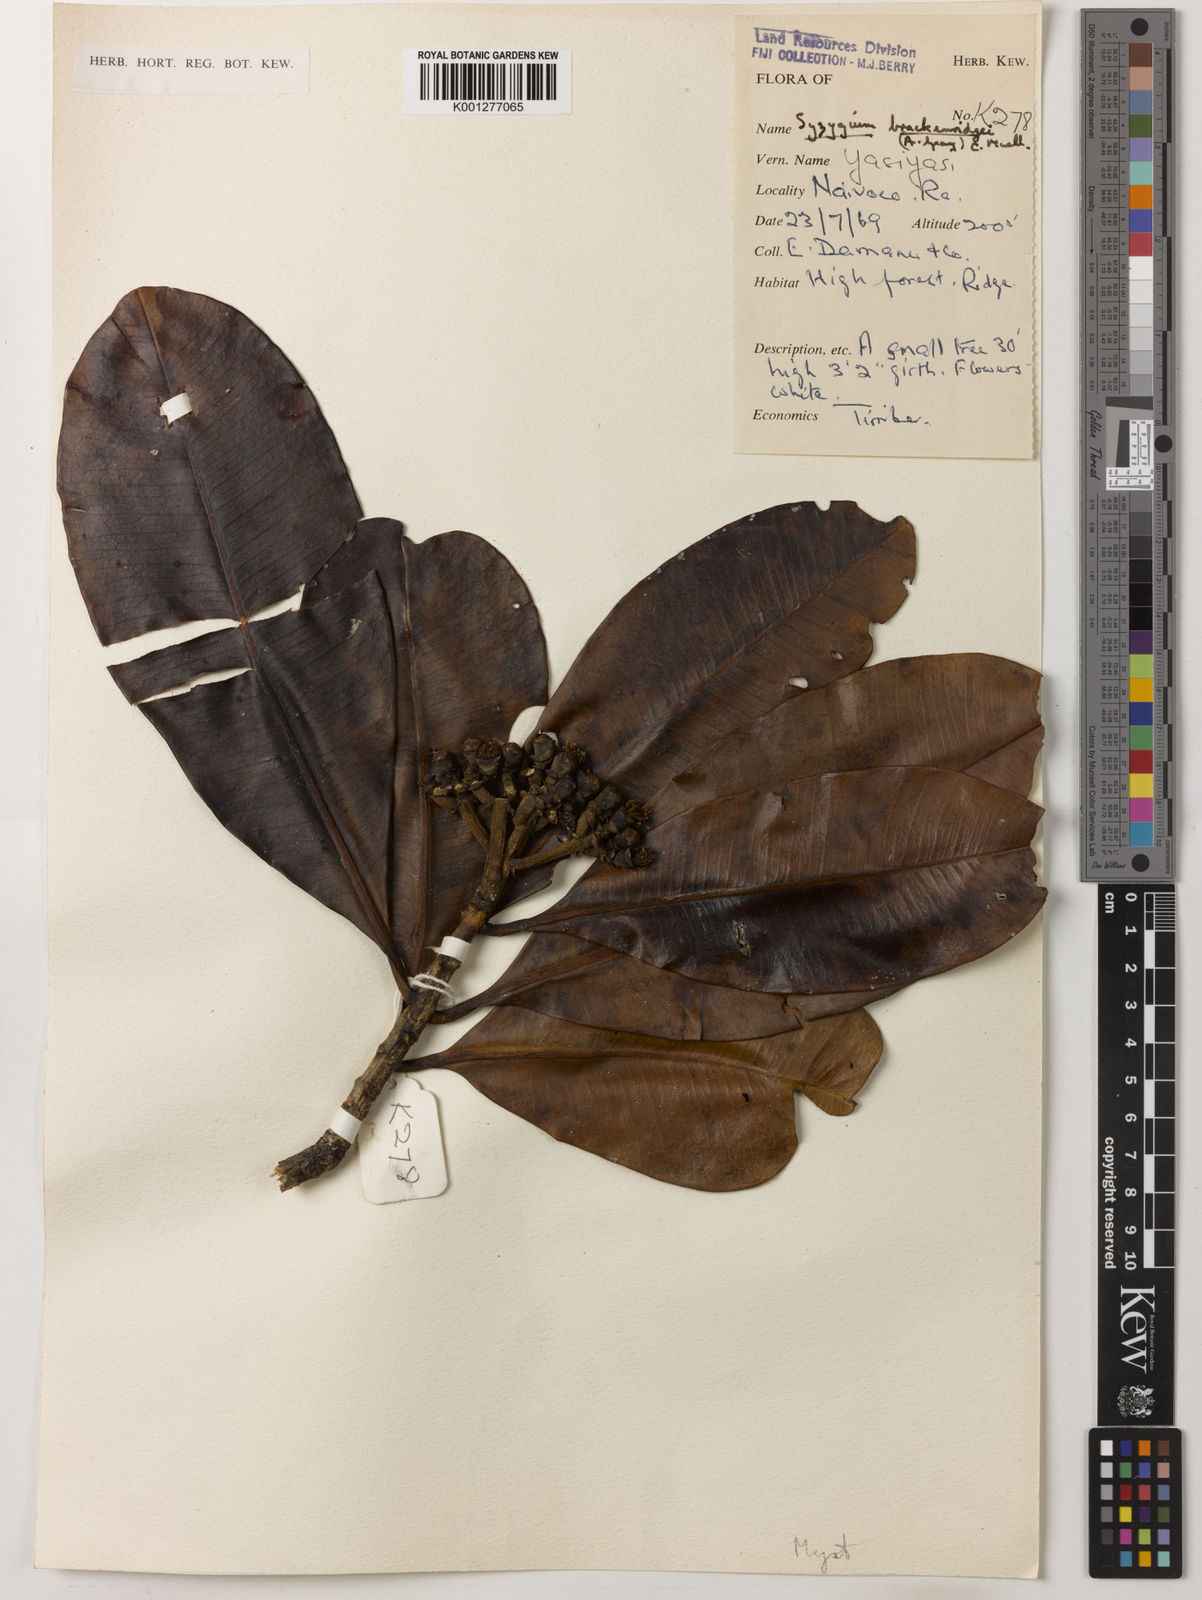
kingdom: Plantae
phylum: Tracheophyta
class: Magnoliopsida
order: Myrtales
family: Myrtaceae
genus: Syzygium
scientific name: Syzygium
